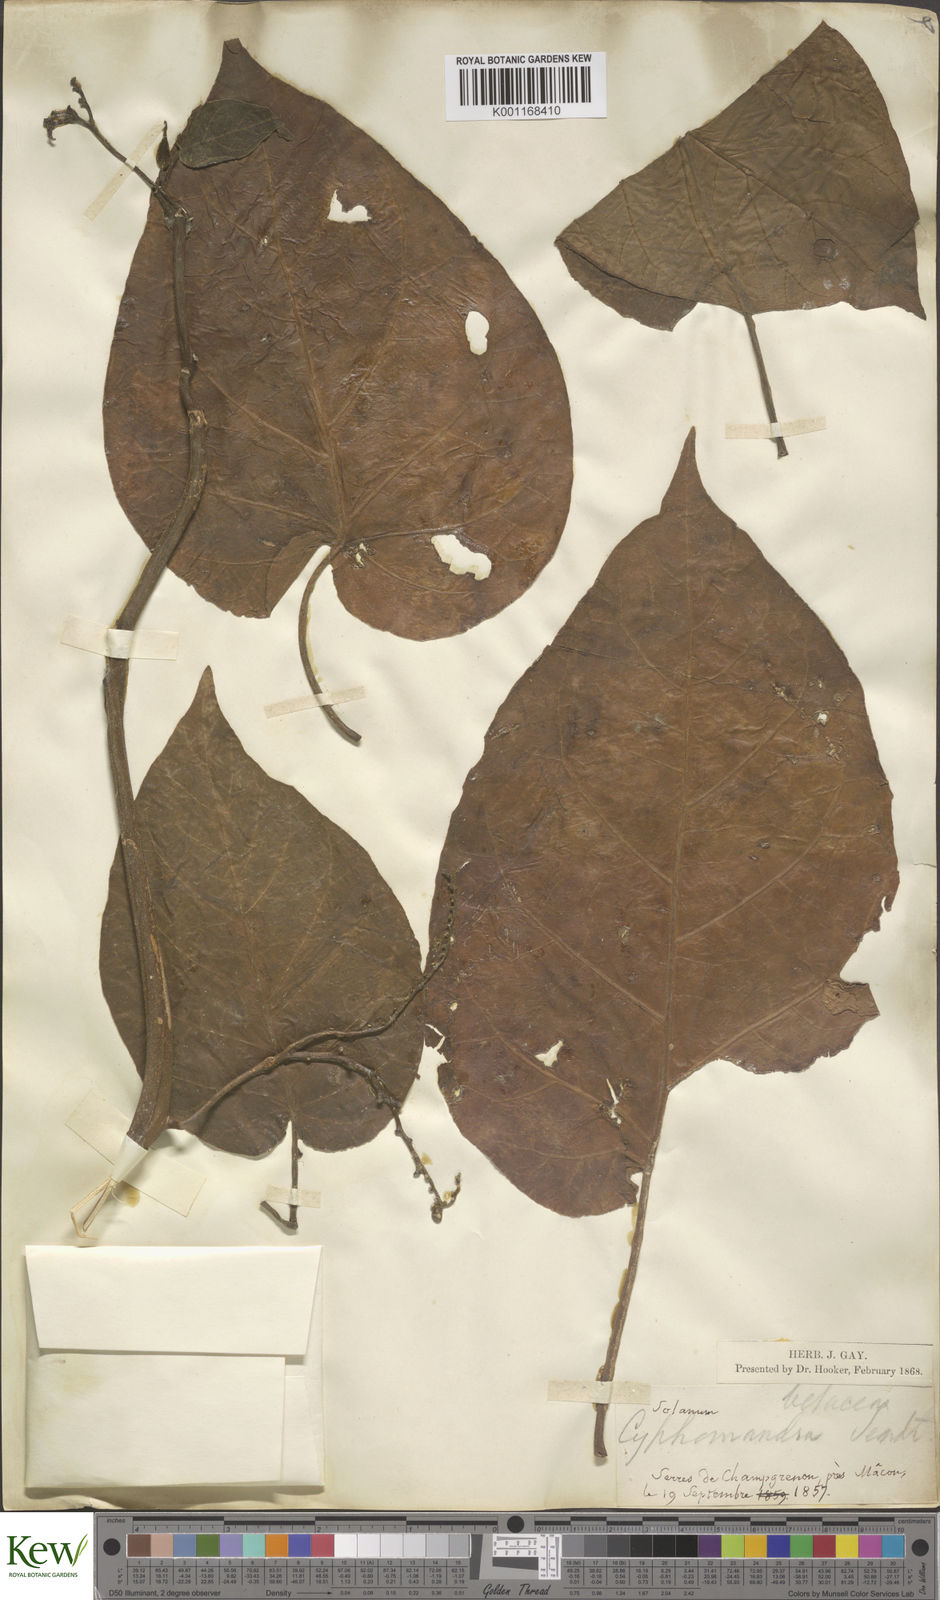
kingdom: Plantae
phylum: Tracheophyta
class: Magnoliopsida
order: Solanales
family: Solanaceae
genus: Solanum
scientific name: Solanum betaceum
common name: Tamarillo
